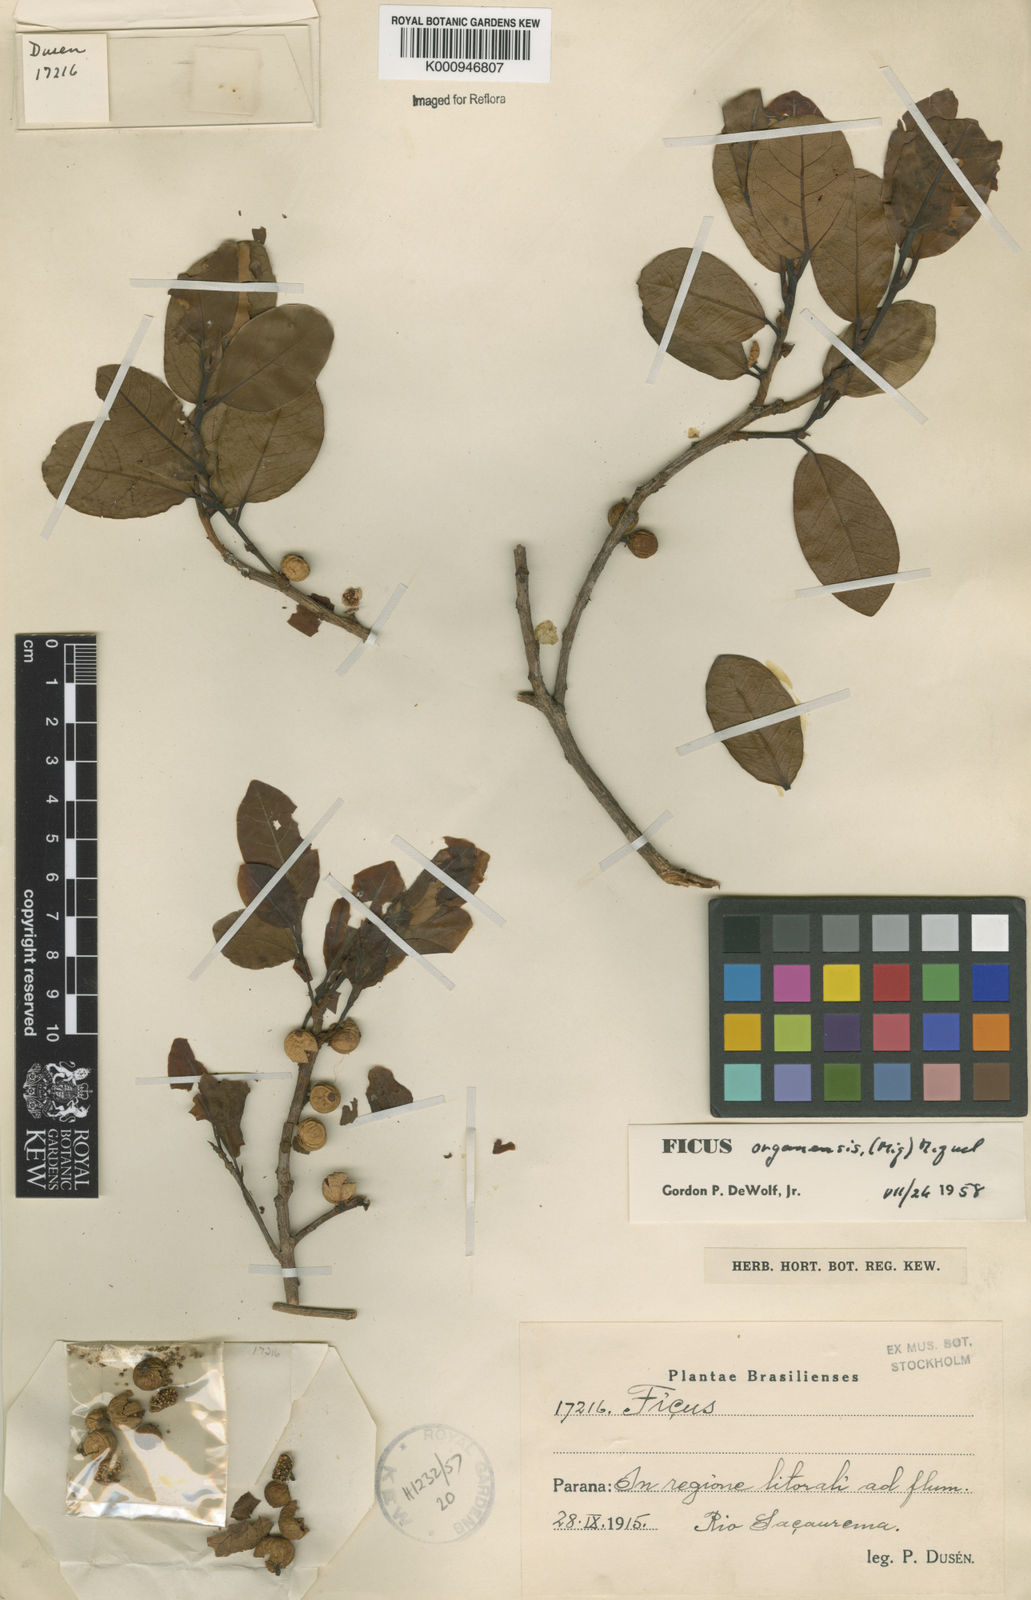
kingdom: Plantae
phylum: Tracheophyta
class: Magnoliopsida
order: Rosales
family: Moraceae
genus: Ficus
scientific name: Ficus organensis
